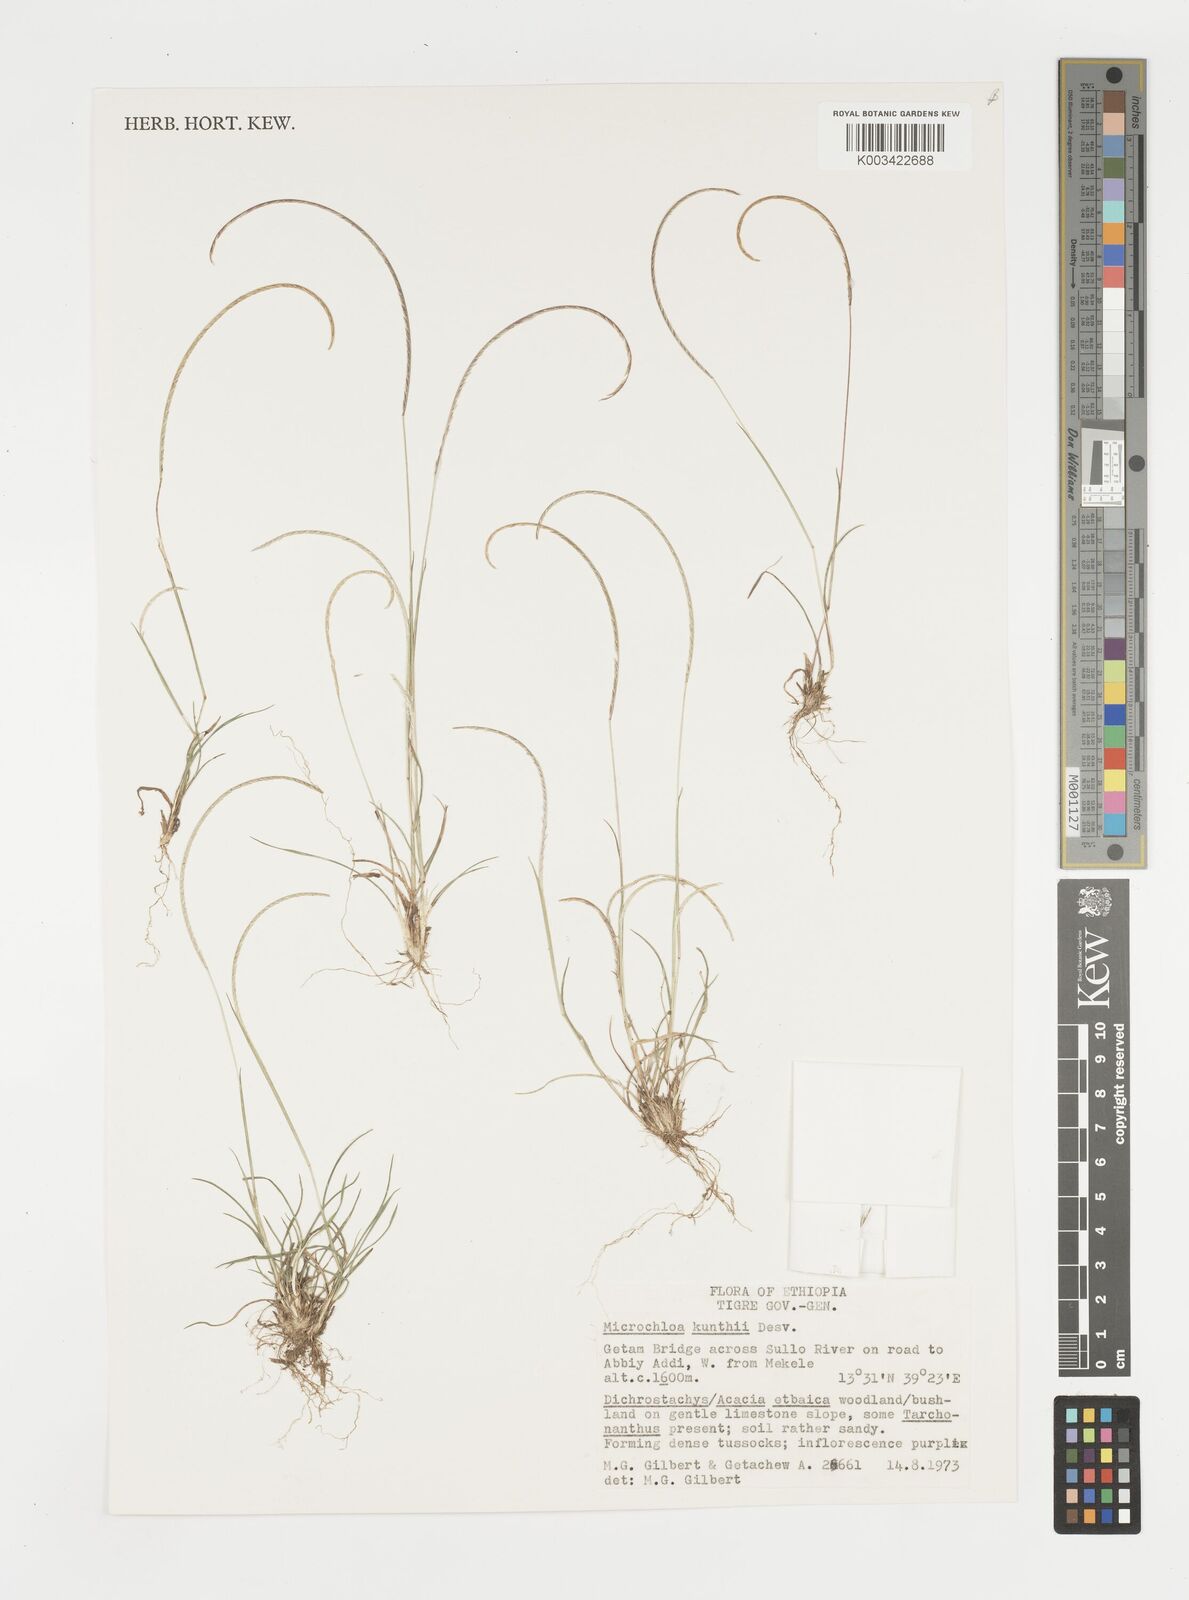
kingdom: Plantae
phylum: Tracheophyta
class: Liliopsida
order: Poales
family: Poaceae
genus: Microchloa
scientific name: Microchloa kunthii
